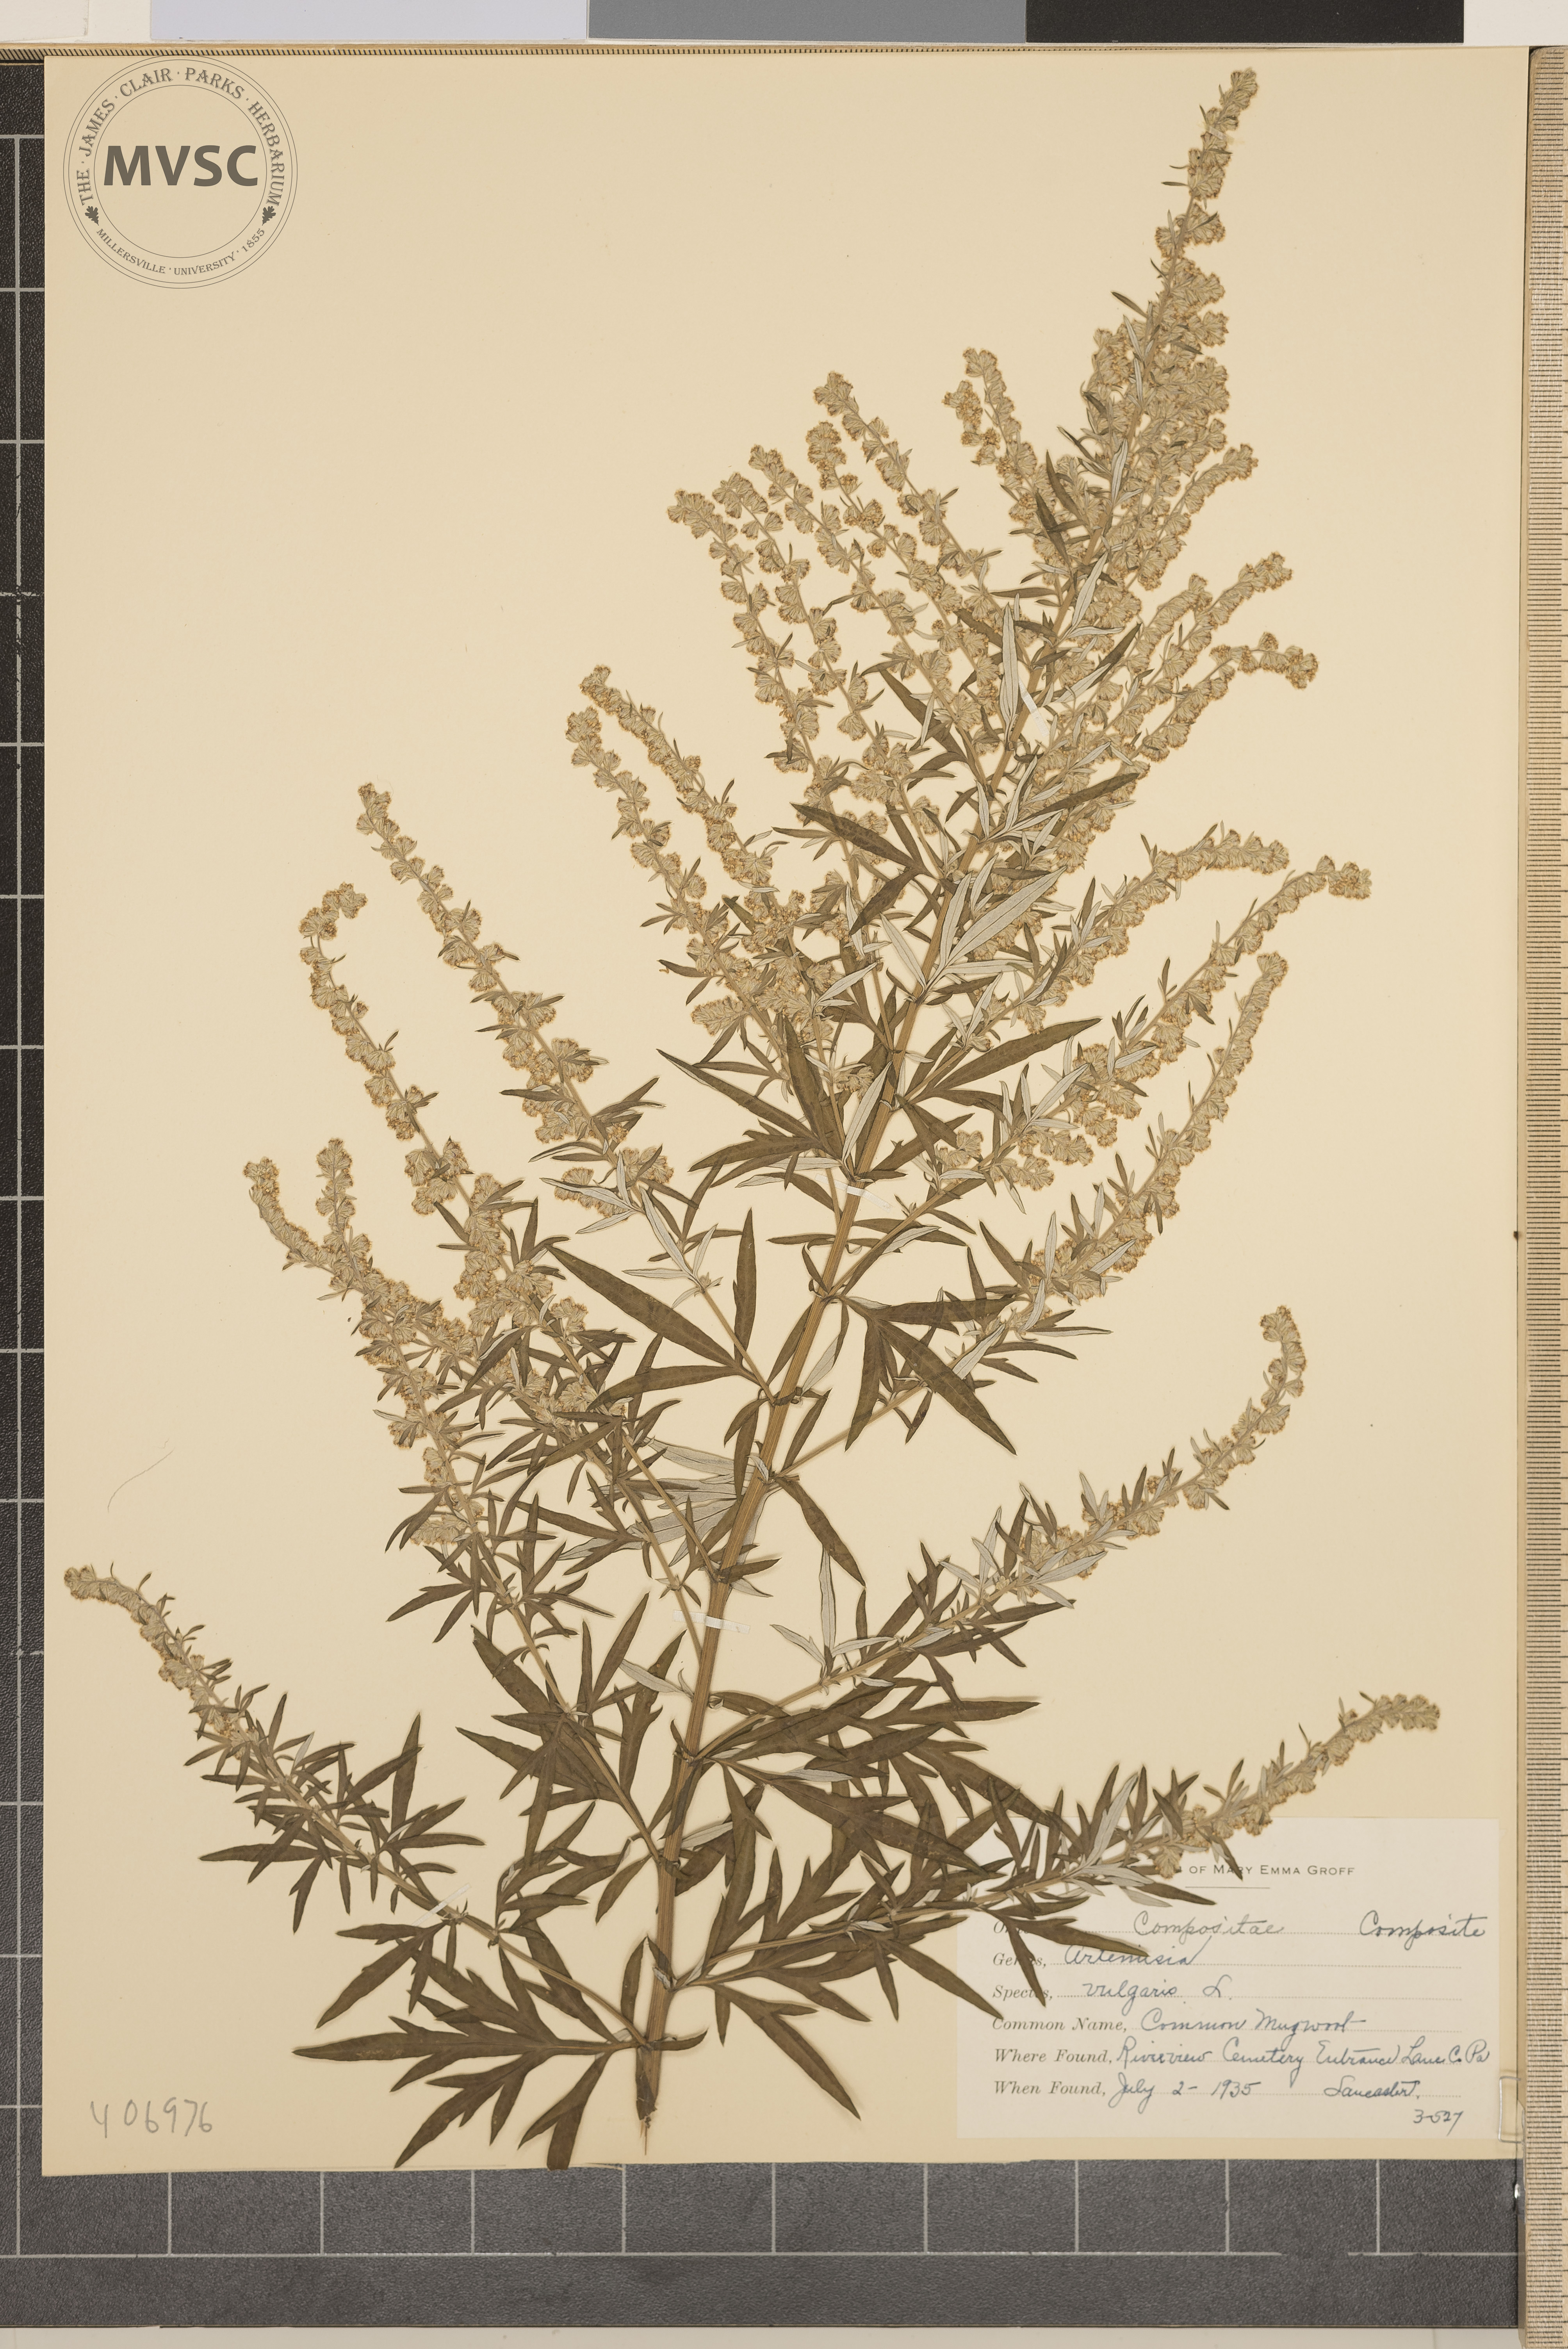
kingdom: Plantae
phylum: Tracheophyta
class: Magnoliopsida
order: Asterales
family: Asteraceae
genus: Artemisia
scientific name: Artemisia vulgaris
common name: Common Mugwort
